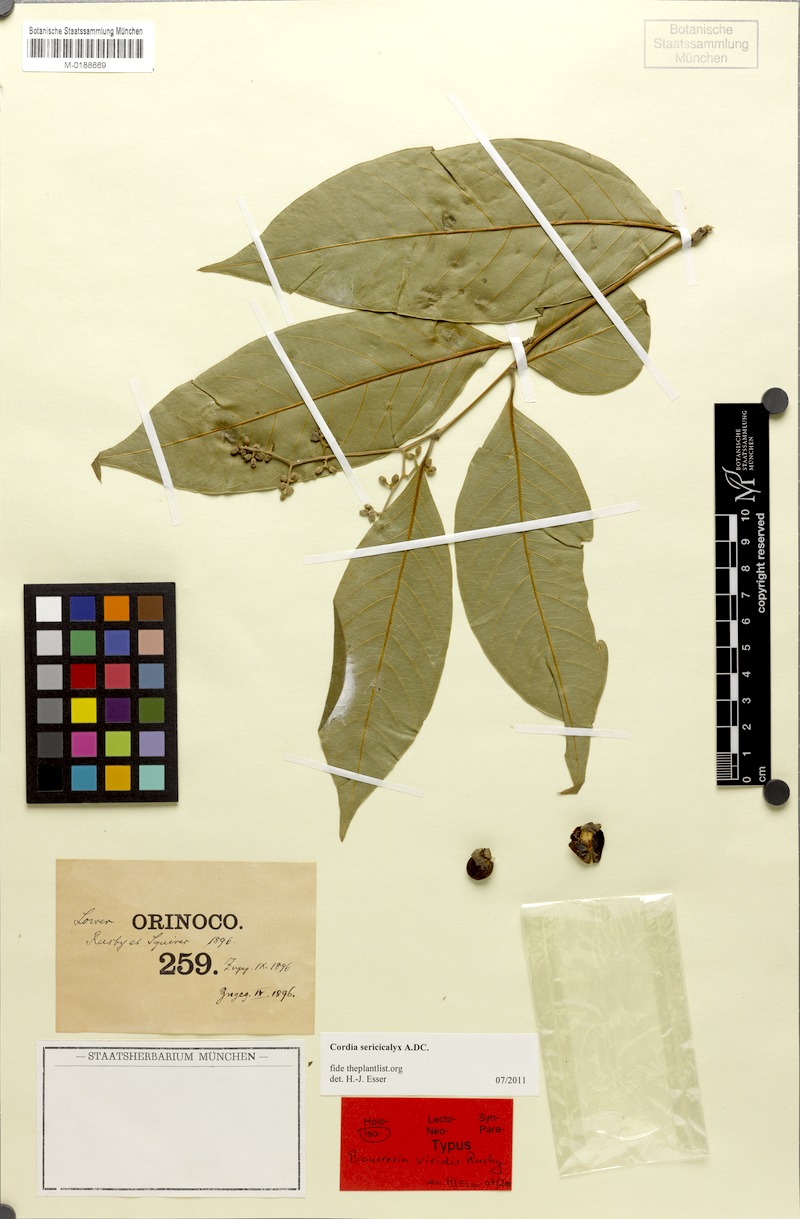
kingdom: Plantae
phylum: Tracheophyta
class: Magnoliopsida
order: Boraginales
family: Cordiaceae
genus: Cordia
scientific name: Cordia sericicalyx
